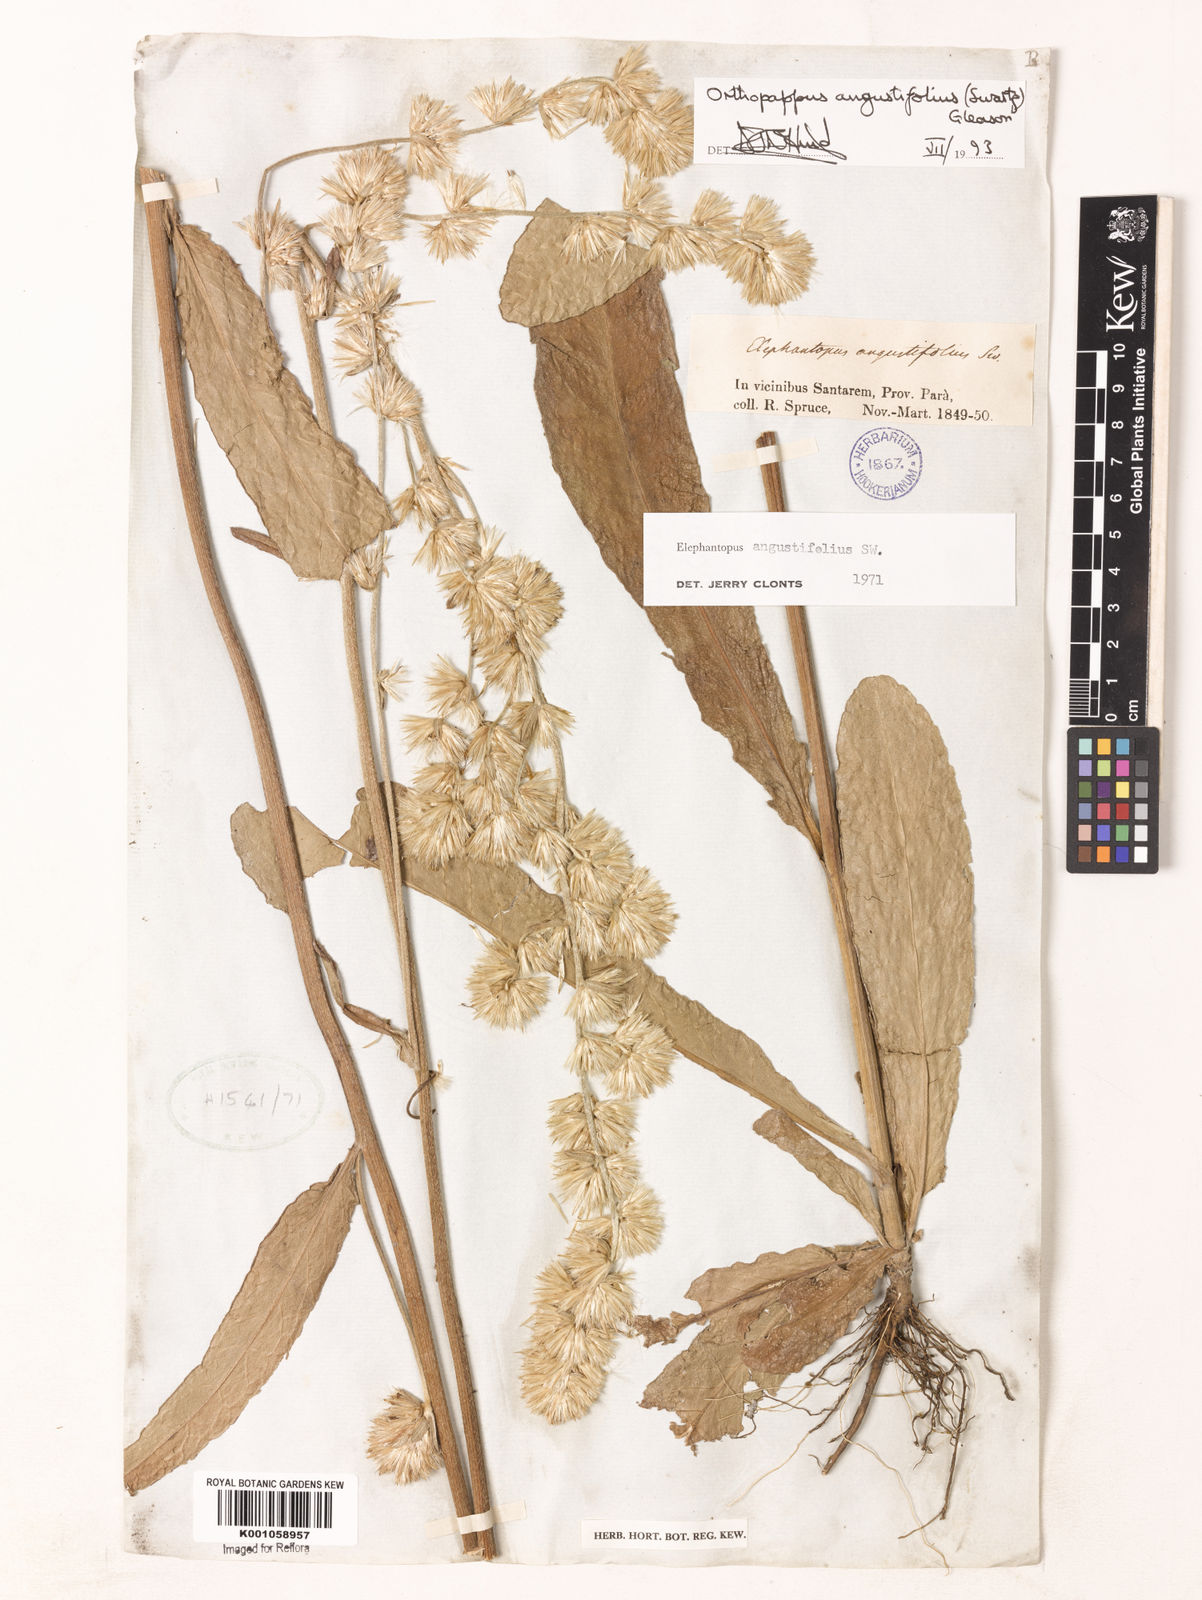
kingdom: Plantae
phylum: Tracheophyta
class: Magnoliopsida
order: Asterales
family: Asteraceae
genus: Orthopappus
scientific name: Orthopappus angustifolius
